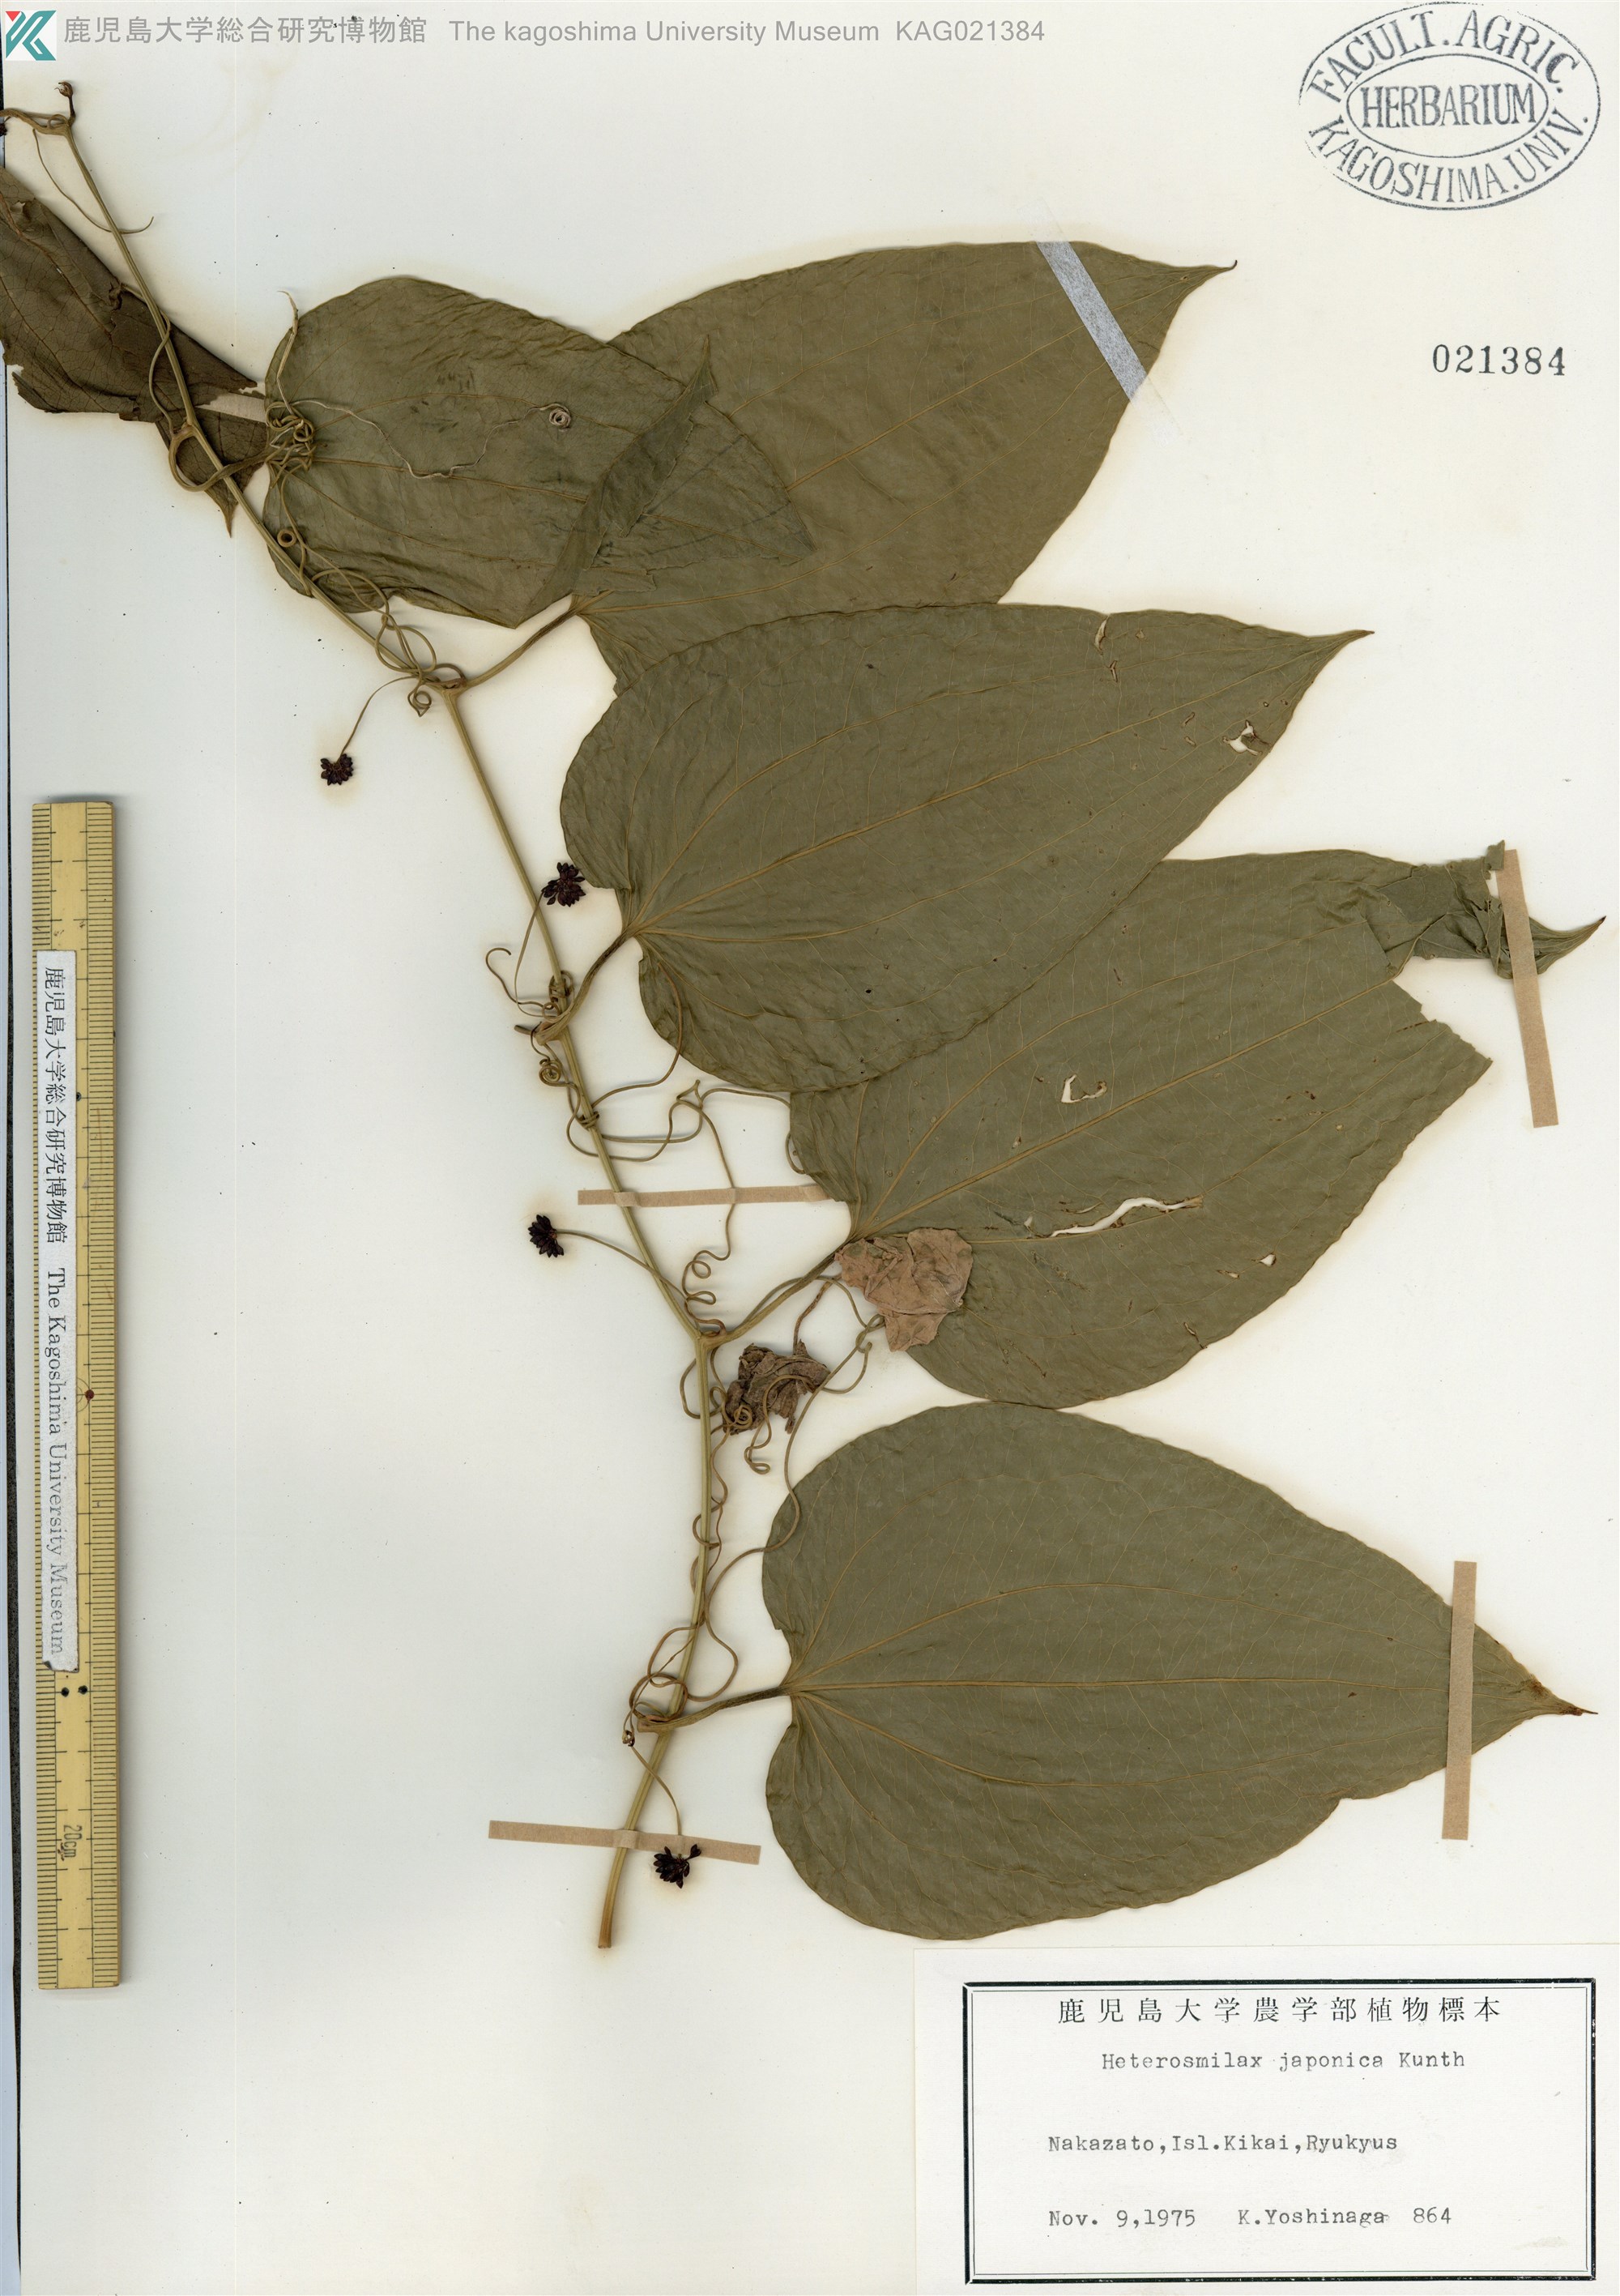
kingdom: Plantae
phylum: Tracheophyta
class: Liliopsida
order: Liliales
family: Smilacaceae
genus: Smilax
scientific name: Smilax insularis
